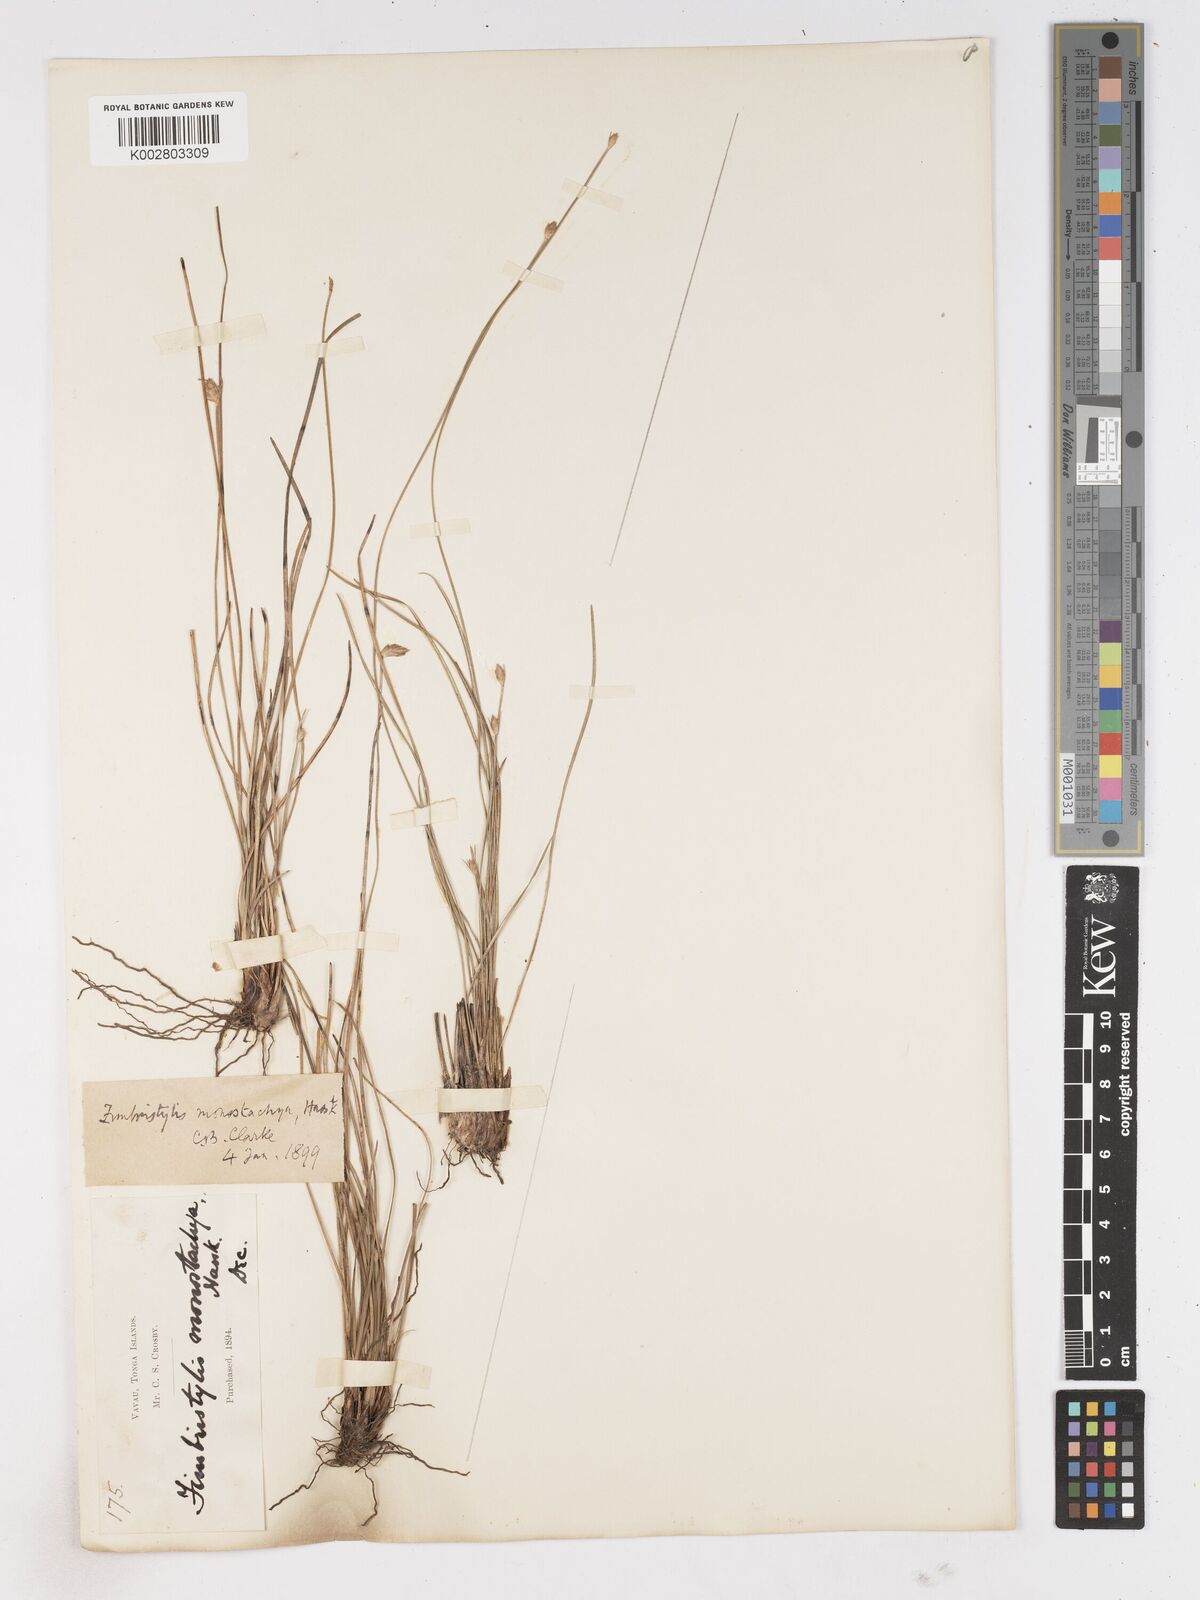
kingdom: Plantae
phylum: Tracheophyta
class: Liliopsida
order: Poales
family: Cyperaceae
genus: Abildgaardia
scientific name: Abildgaardia ovata
